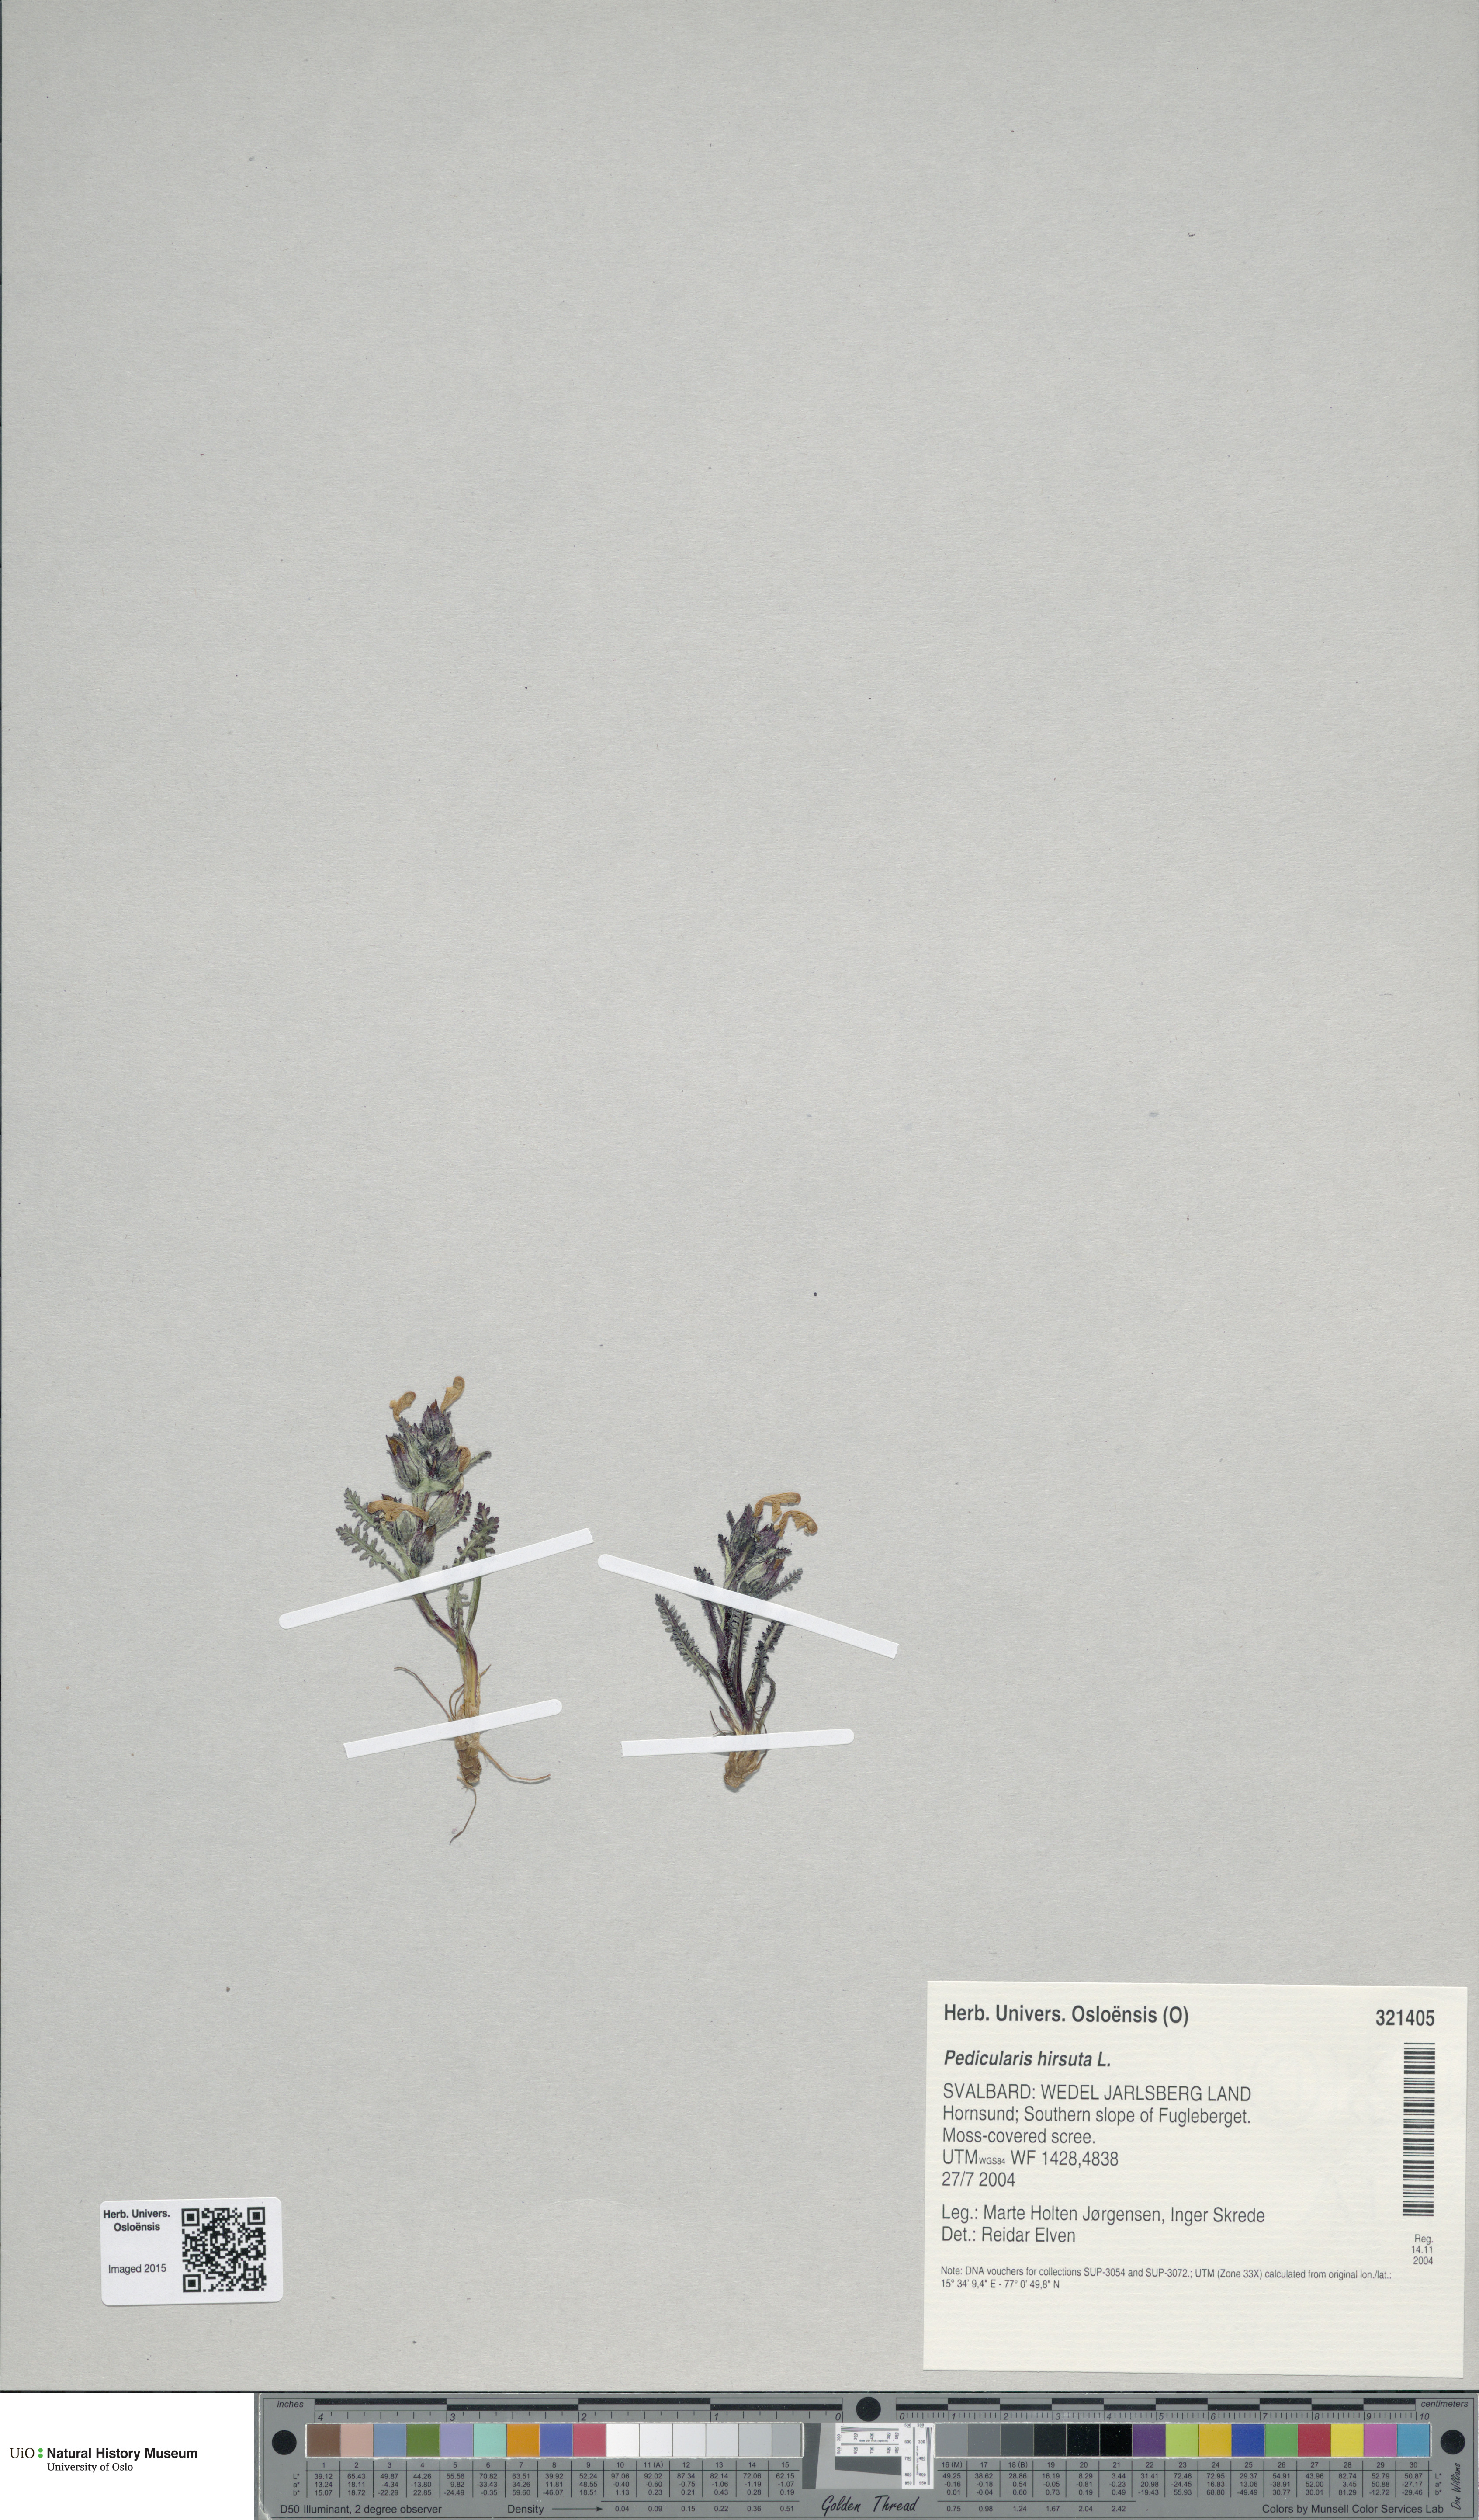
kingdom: Plantae
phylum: Tracheophyta
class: Magnoliopsida
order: Lamiales
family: Orobanchaceae
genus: Pedicularis
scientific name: Pedicularis hirsuta
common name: Hairy lousewort
